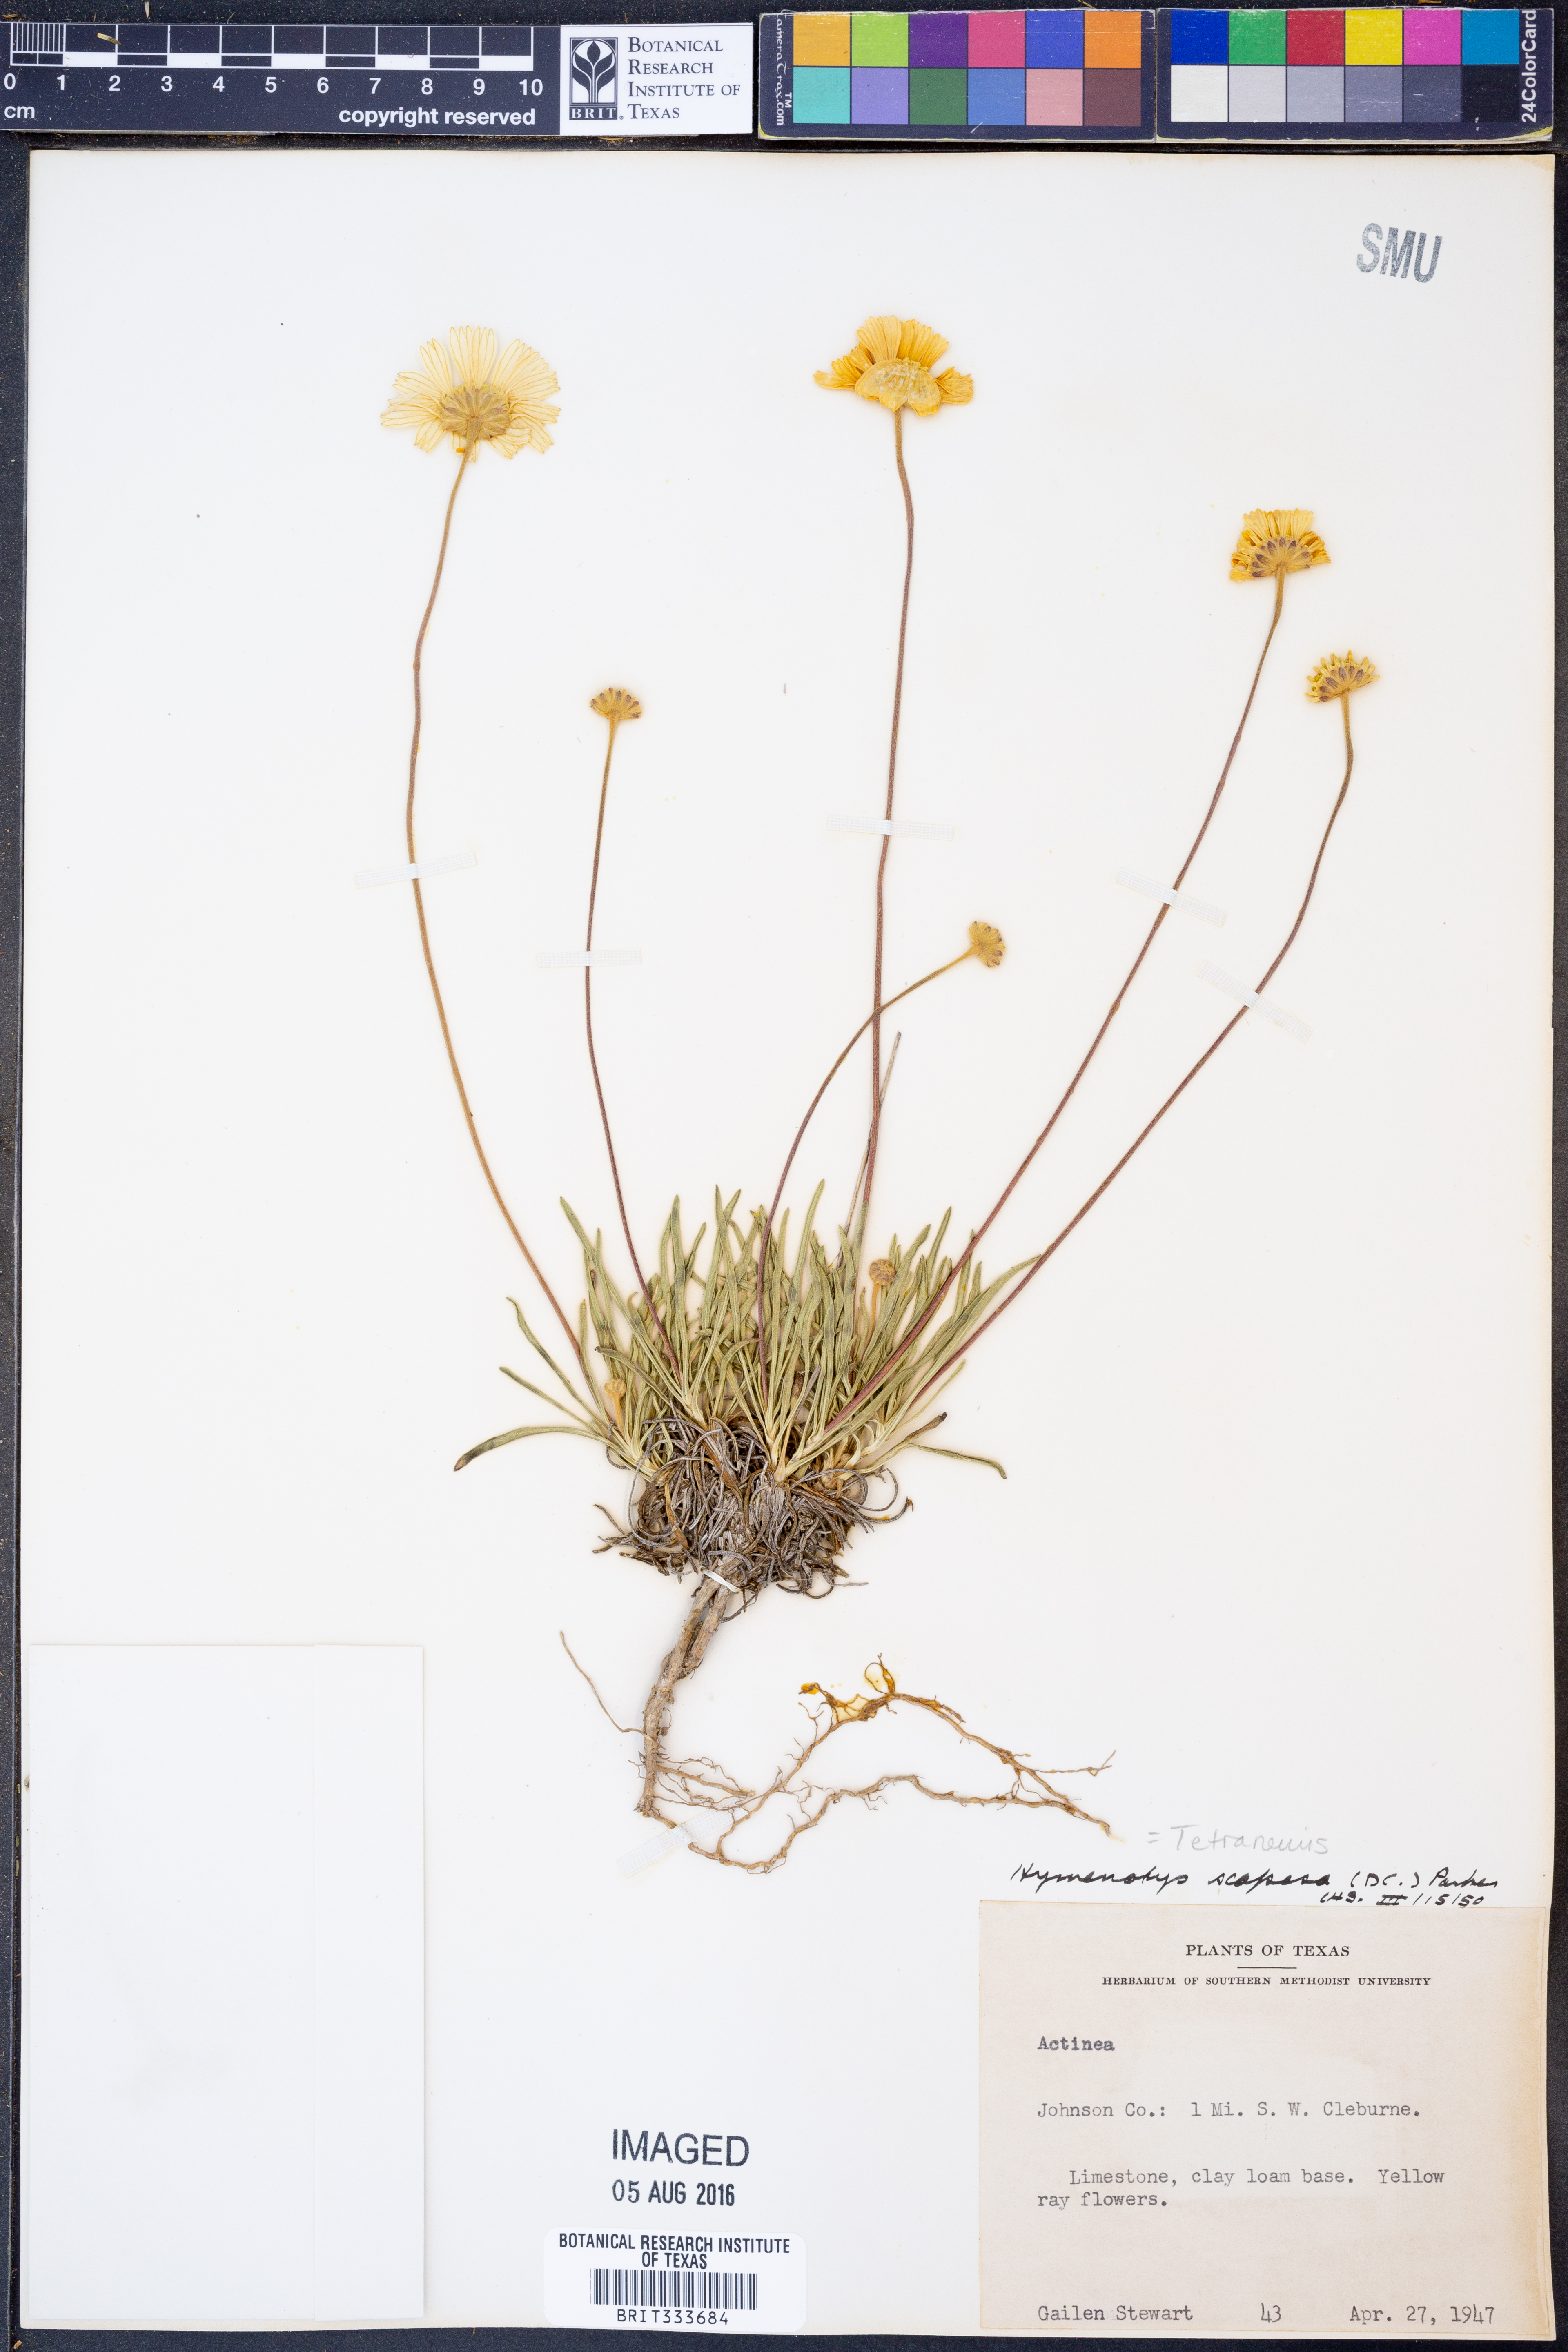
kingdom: Plantae
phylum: Tracheophyta
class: Magnoliopsida
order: Asterales
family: Asteraceae
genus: Tetraneuris
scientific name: Tetraneuris scaposa
